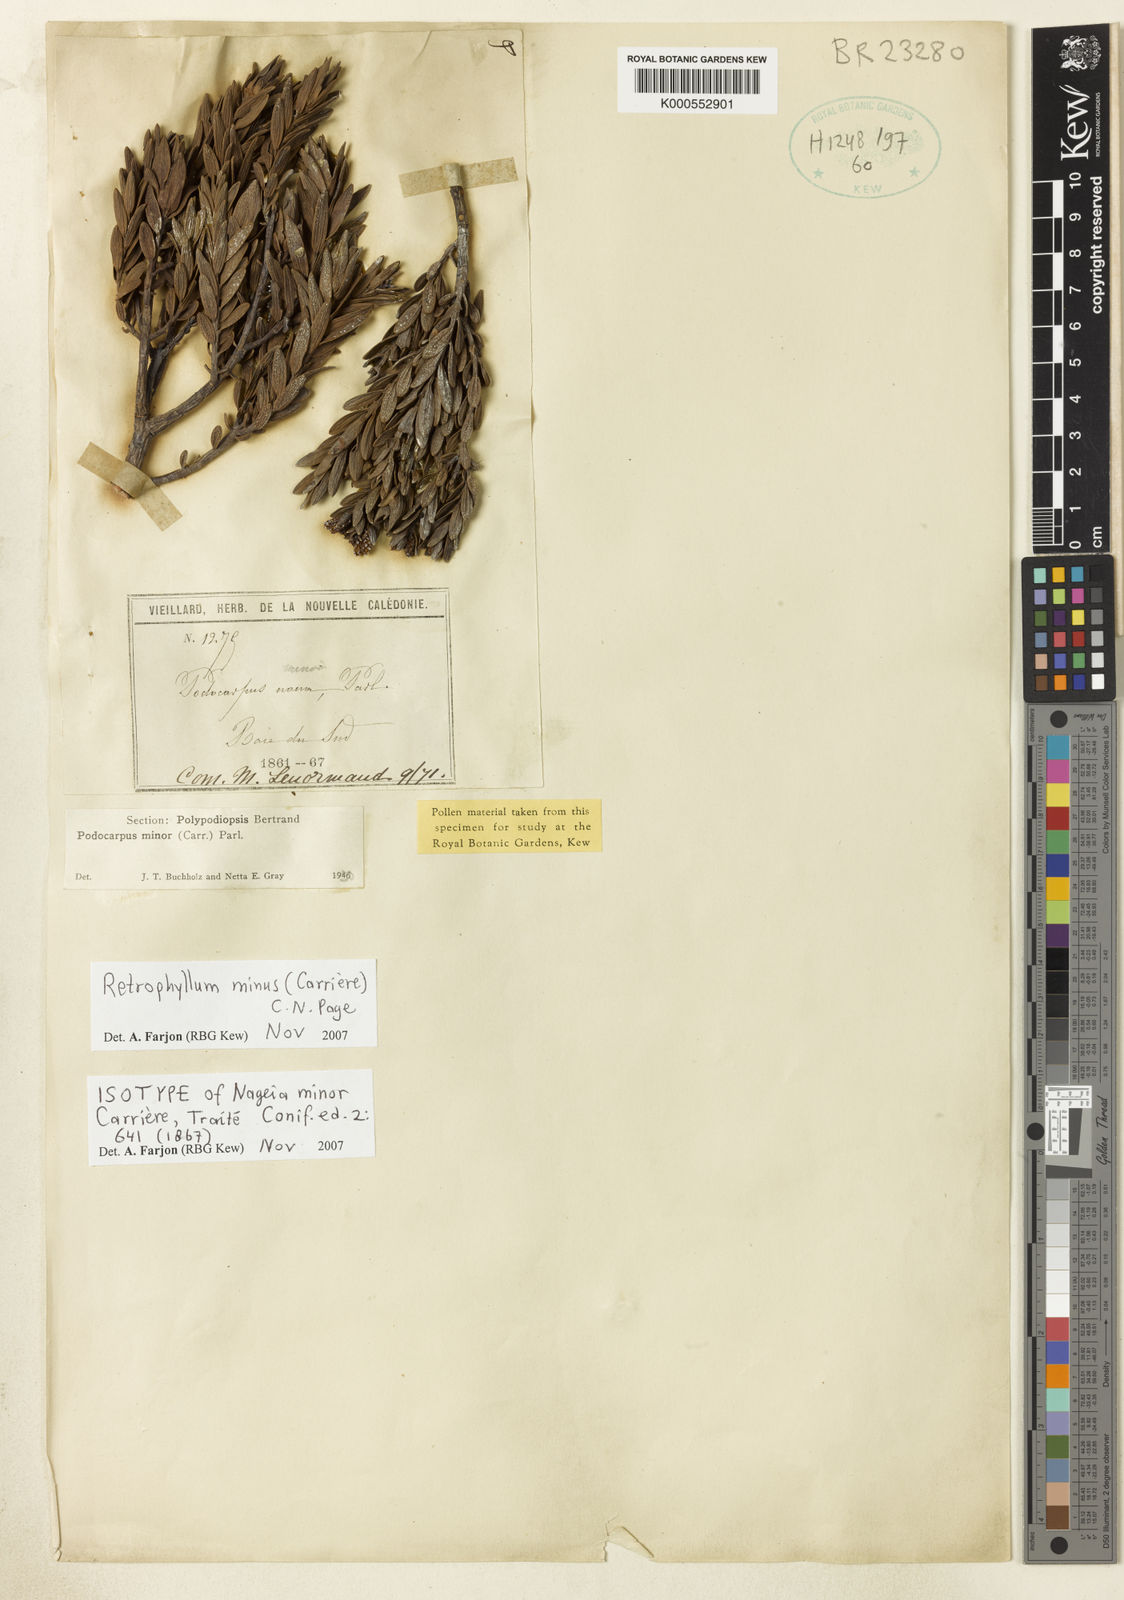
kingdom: Plantae
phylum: Tracheophyta
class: Pinopsida
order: Pinales
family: Podocarpaceae
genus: Retrophyllum
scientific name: Retrophyllum
